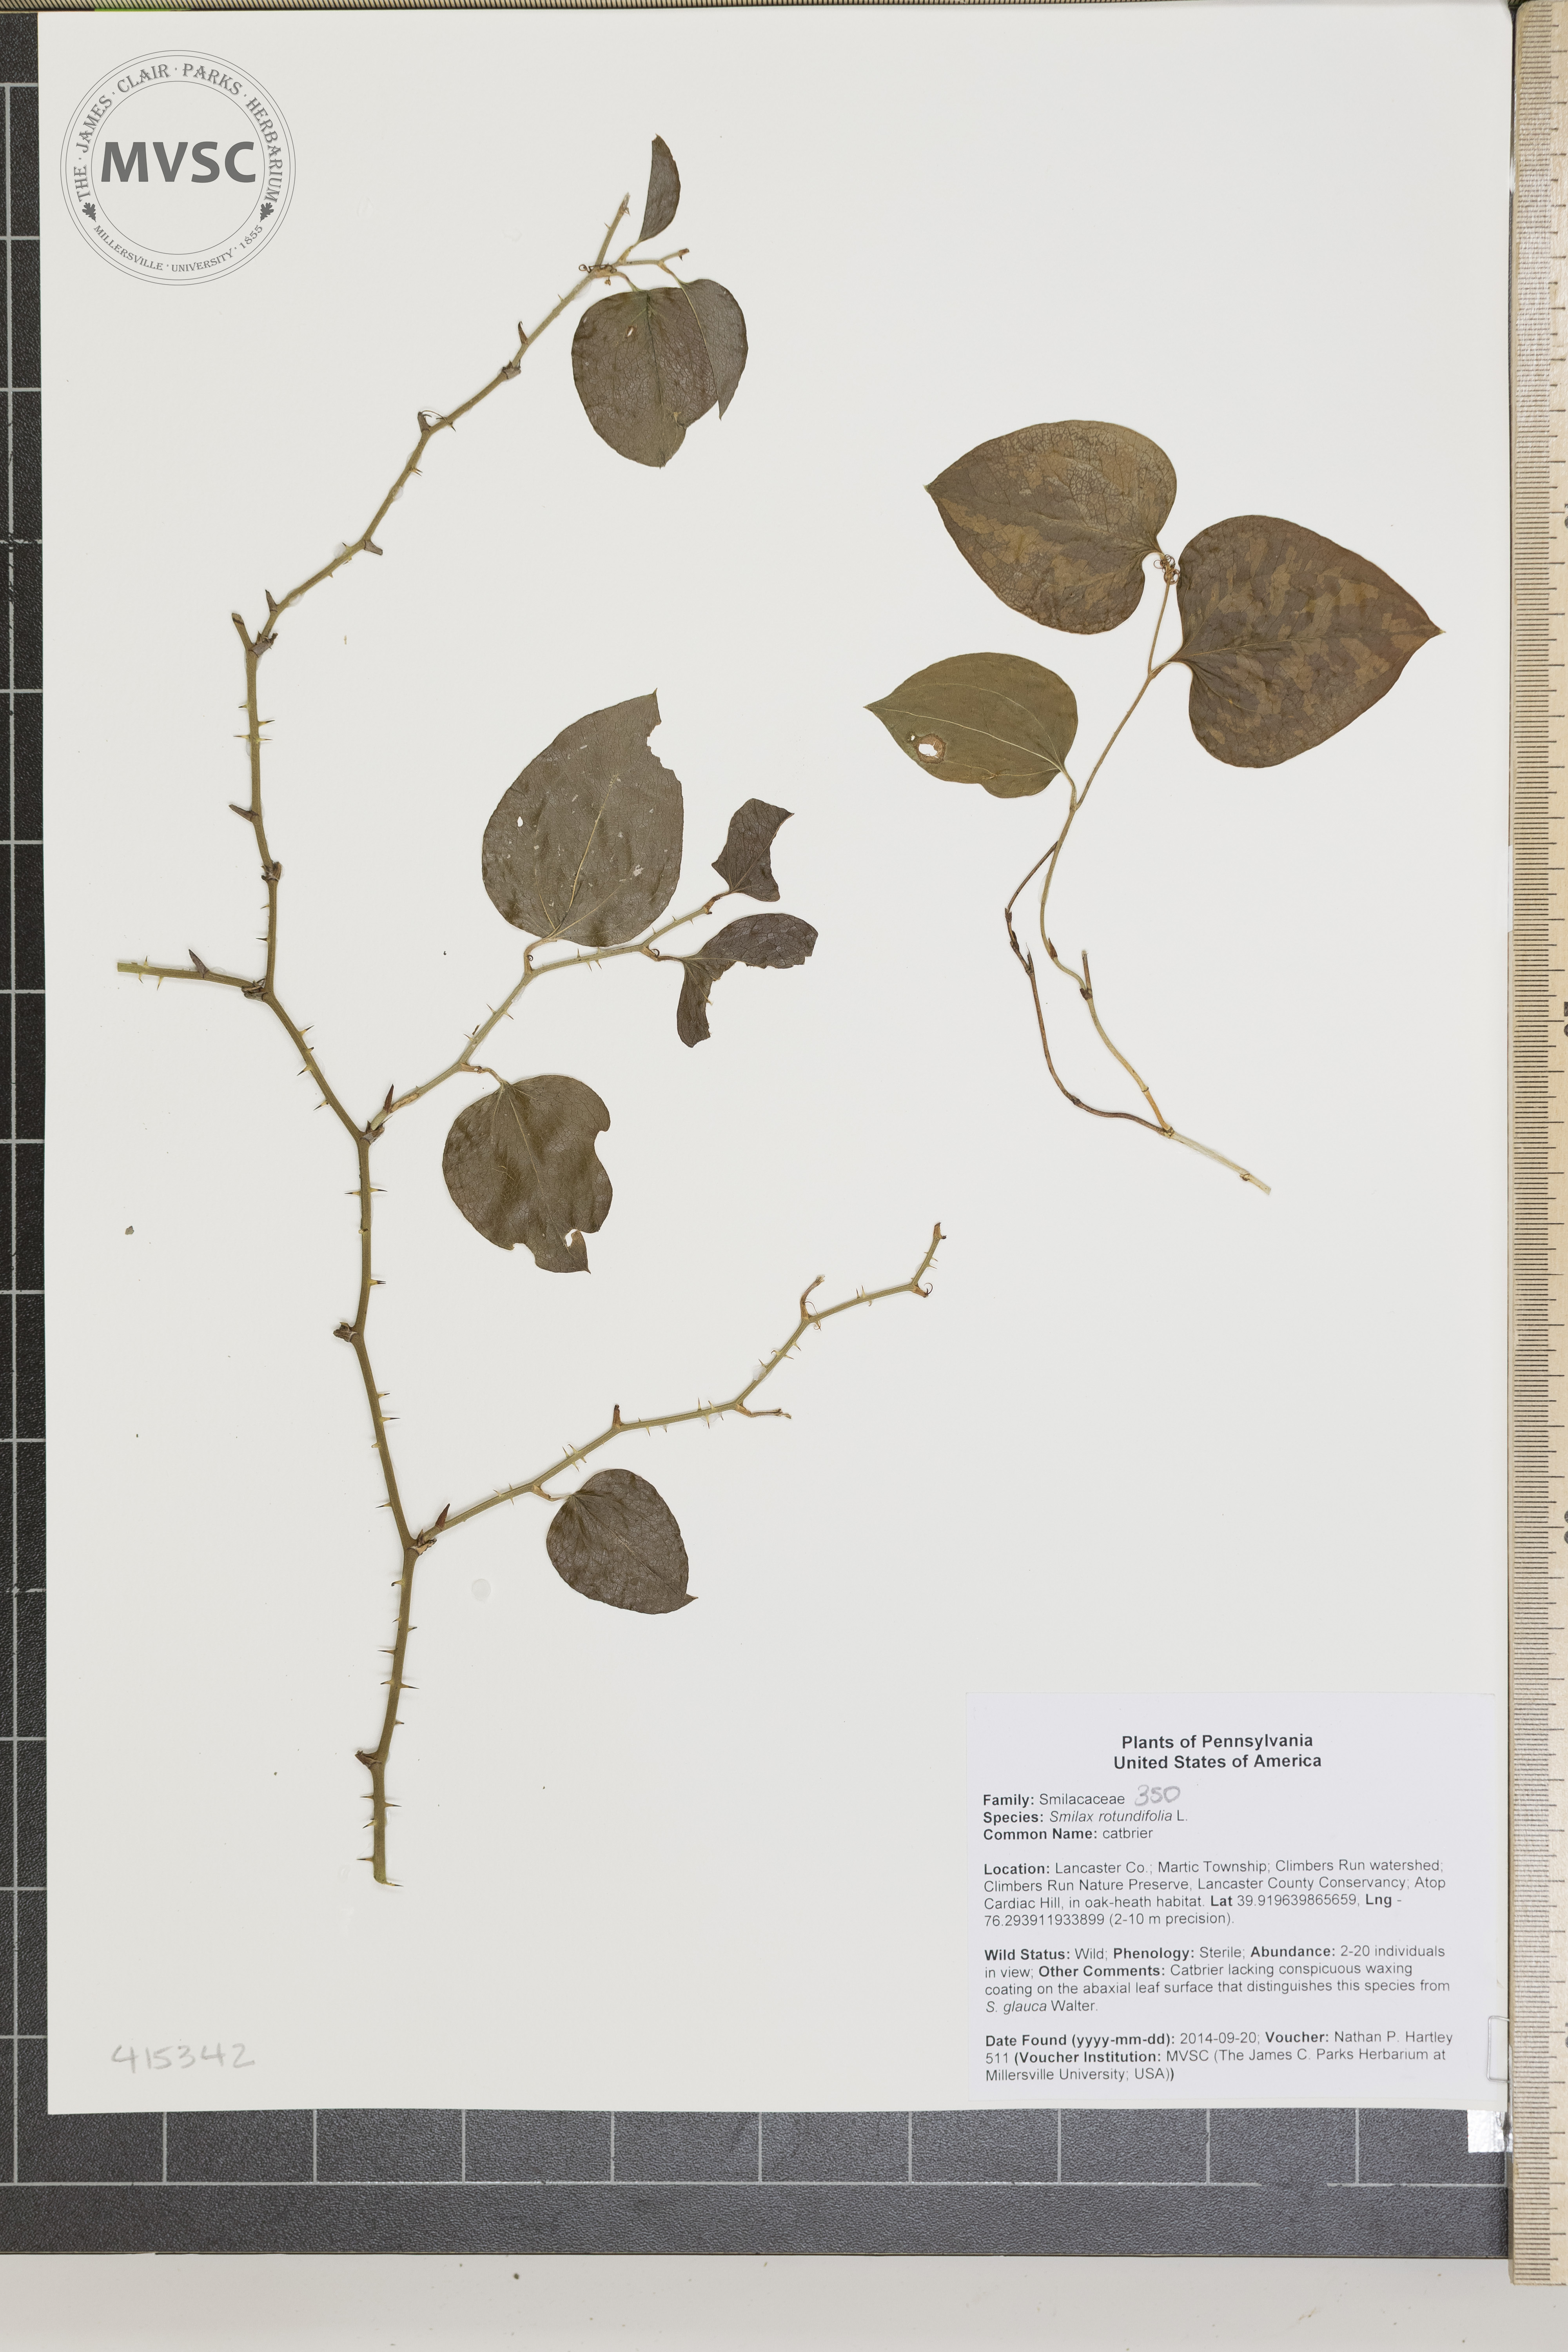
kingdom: Plantae
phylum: Tracheophyta
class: Liliopsida
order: Liliales
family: Smilacaceae
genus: Smilax
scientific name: Smilax rotundifolia
